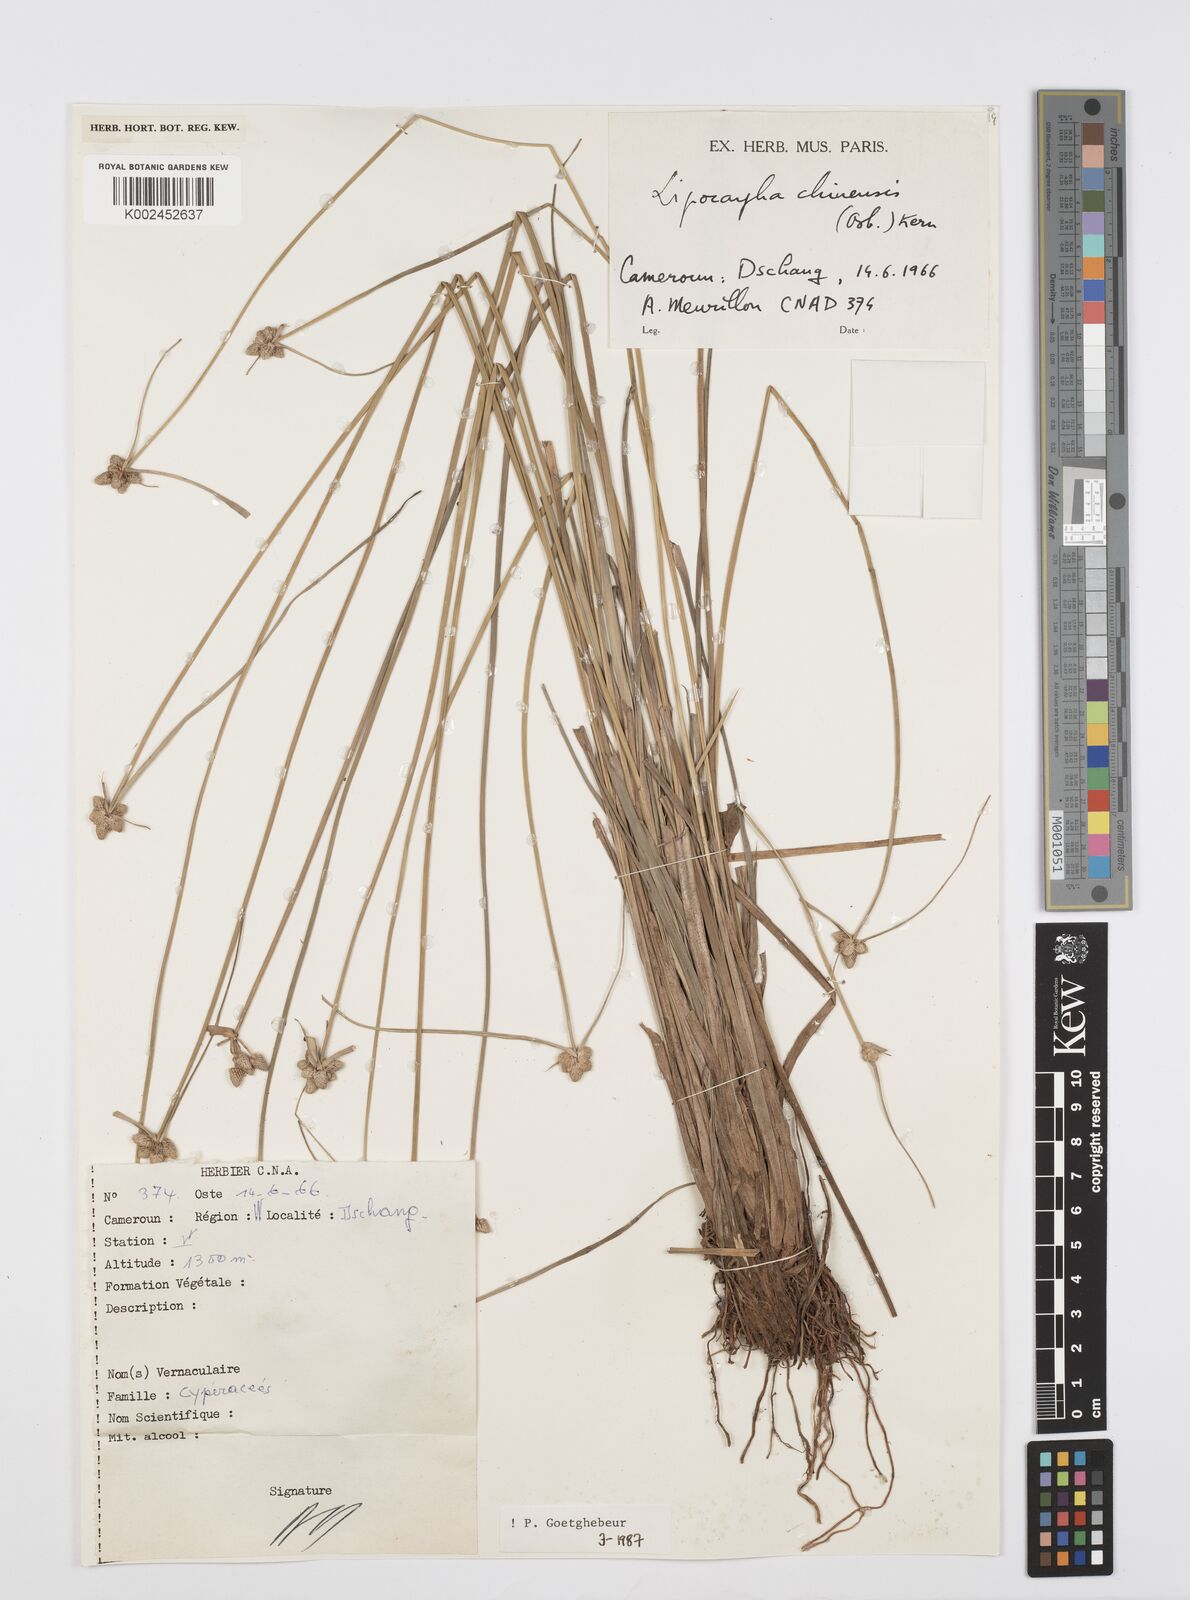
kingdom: Plantae
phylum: Tracheophyta
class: Liliopsida
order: Poales
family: Cyperaceae
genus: Cyperus
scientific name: Cyperus albescens
